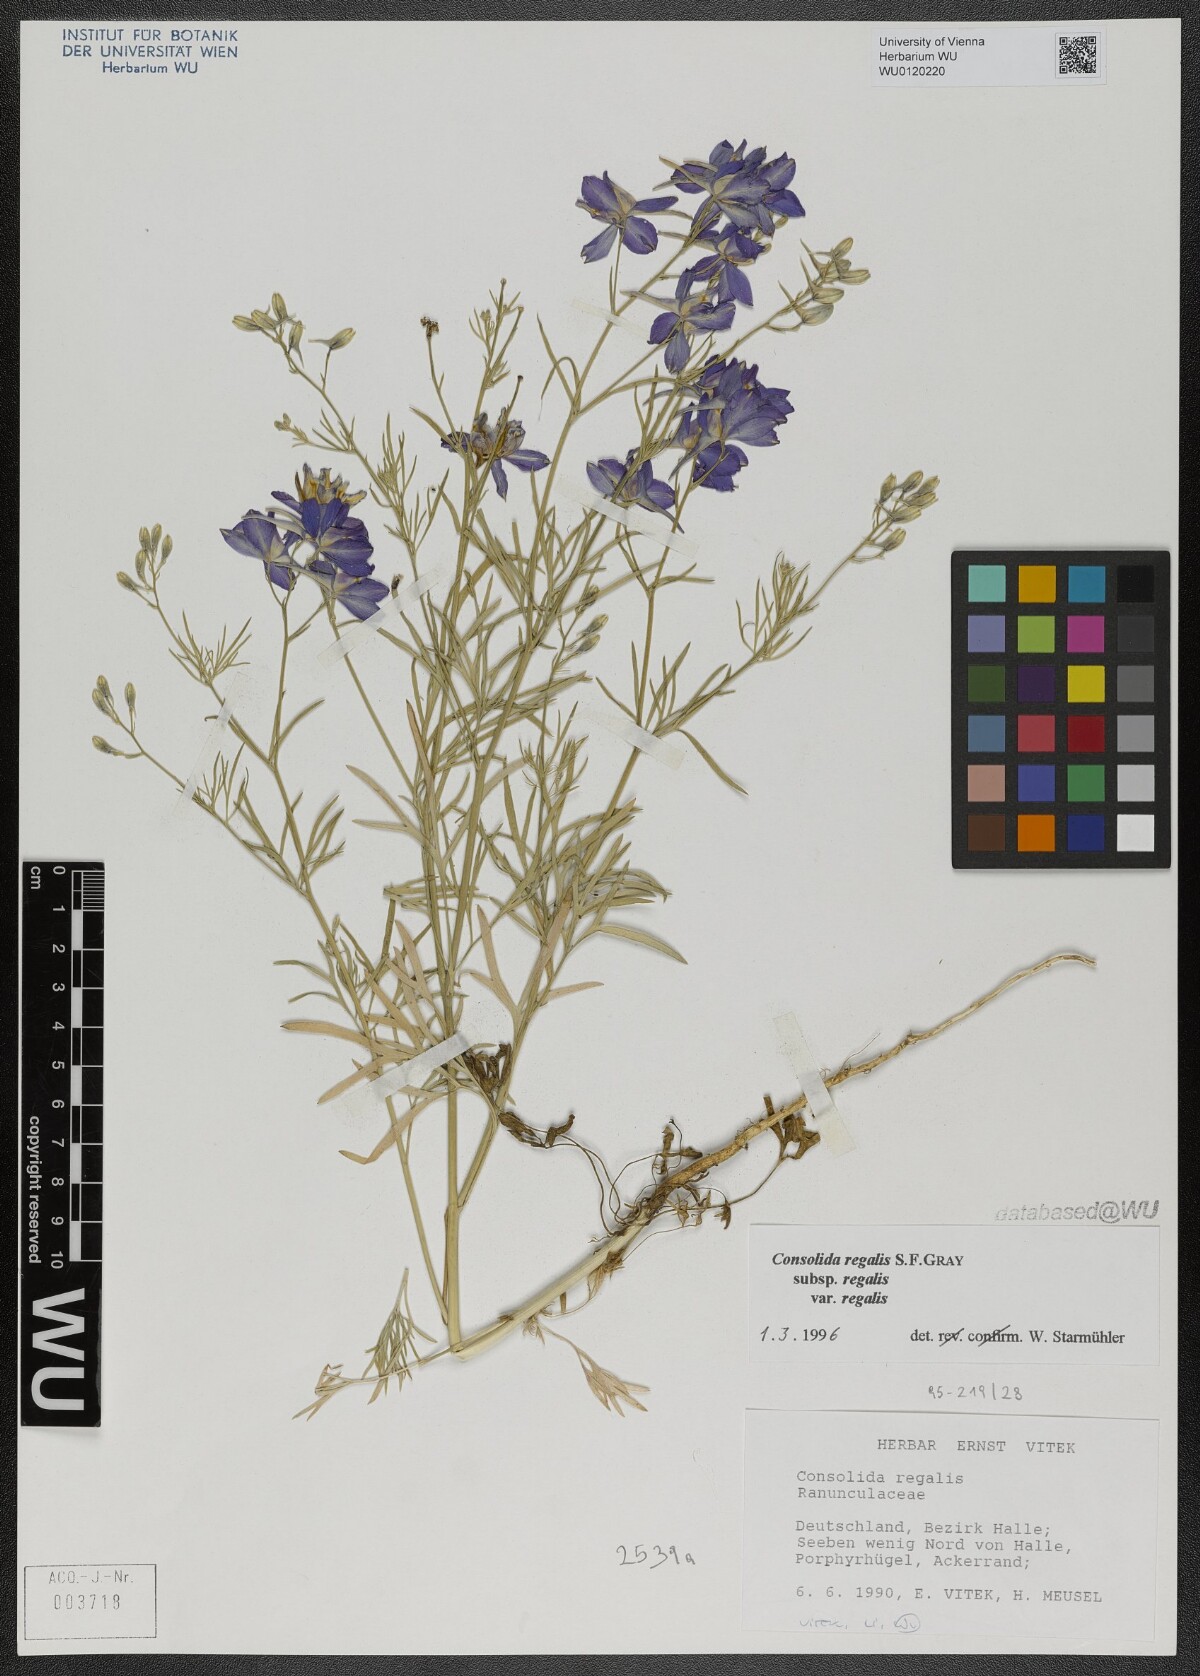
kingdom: Plantae
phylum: Tracheophyta
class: Magnoliopsida
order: Ranunculales
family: Ranunculaceae
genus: Delphinium
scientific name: Delphinium consolida
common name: Branching larkspur
